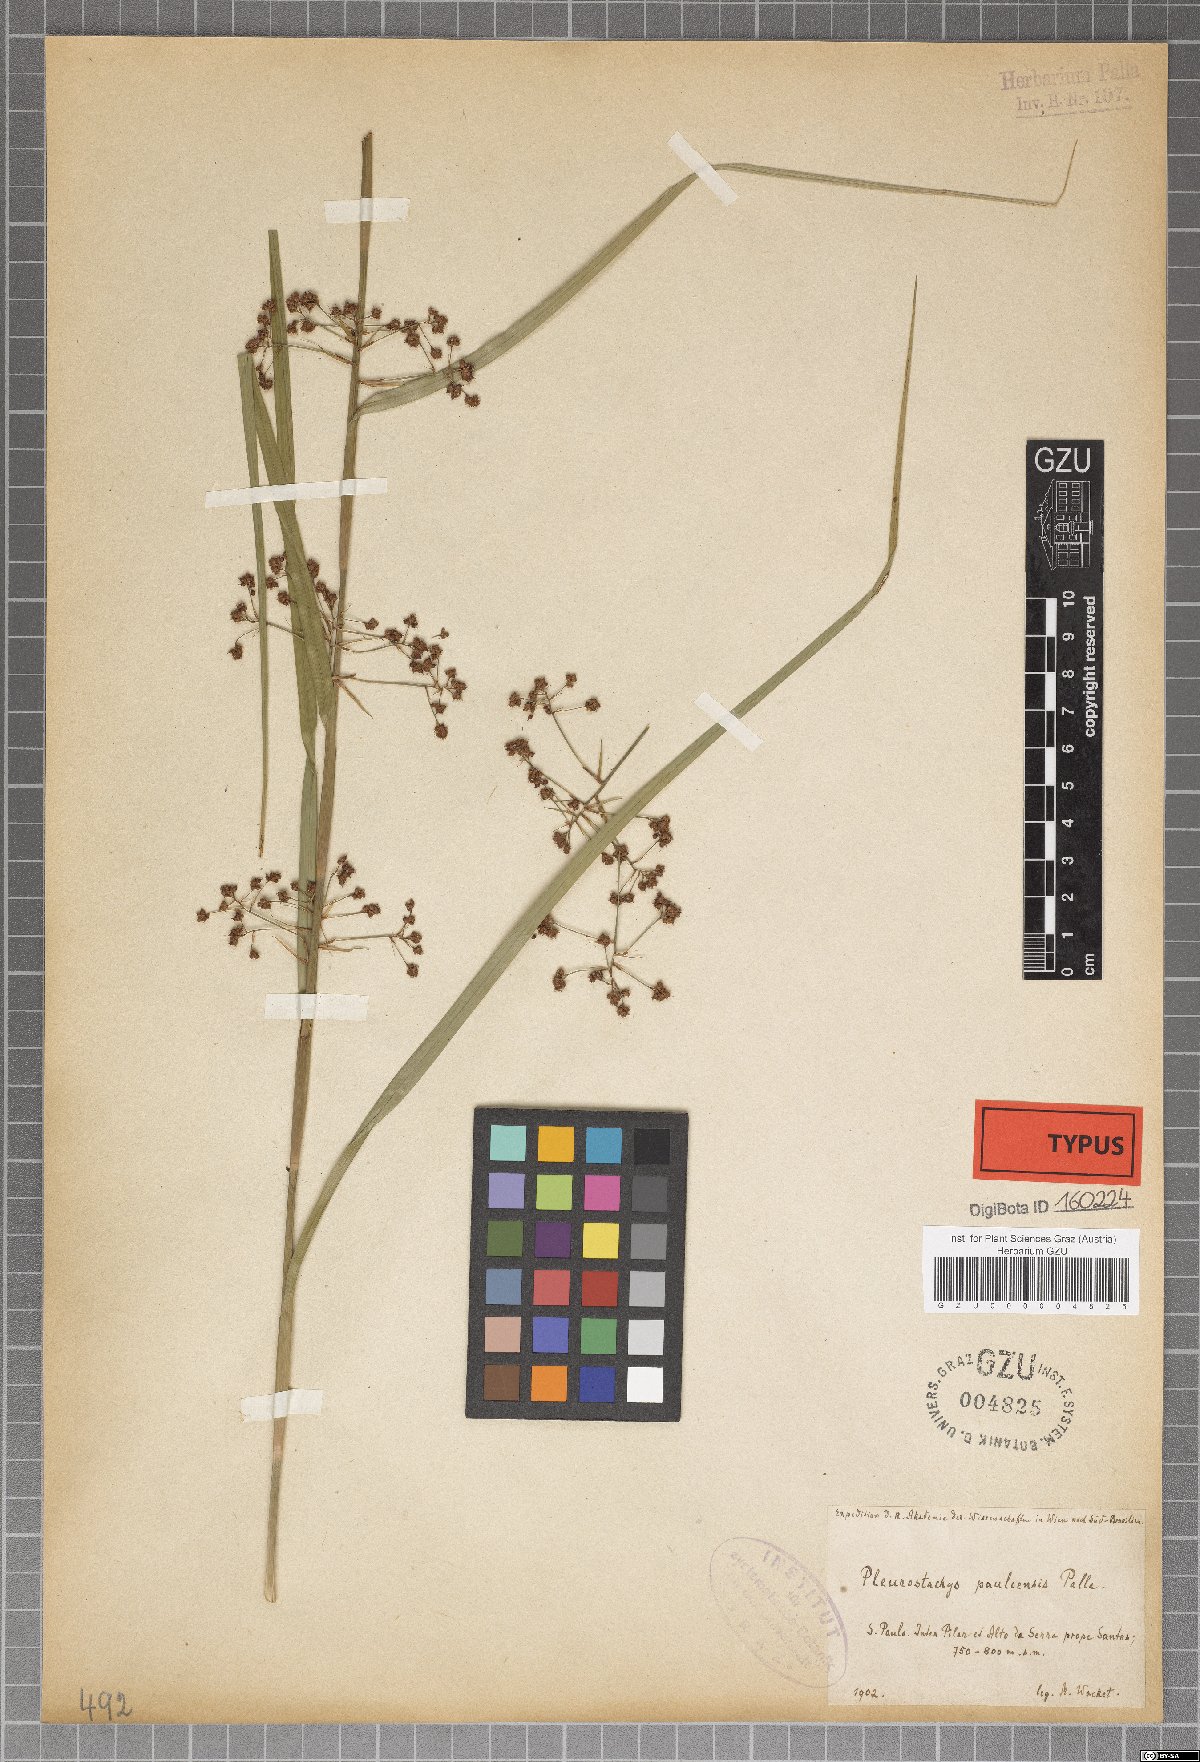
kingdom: Plantae
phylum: Tracheophyta
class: Liliopsida
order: Poales
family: Cyperaceae
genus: Rhynchospora
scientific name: Rhynchospora foliosa
